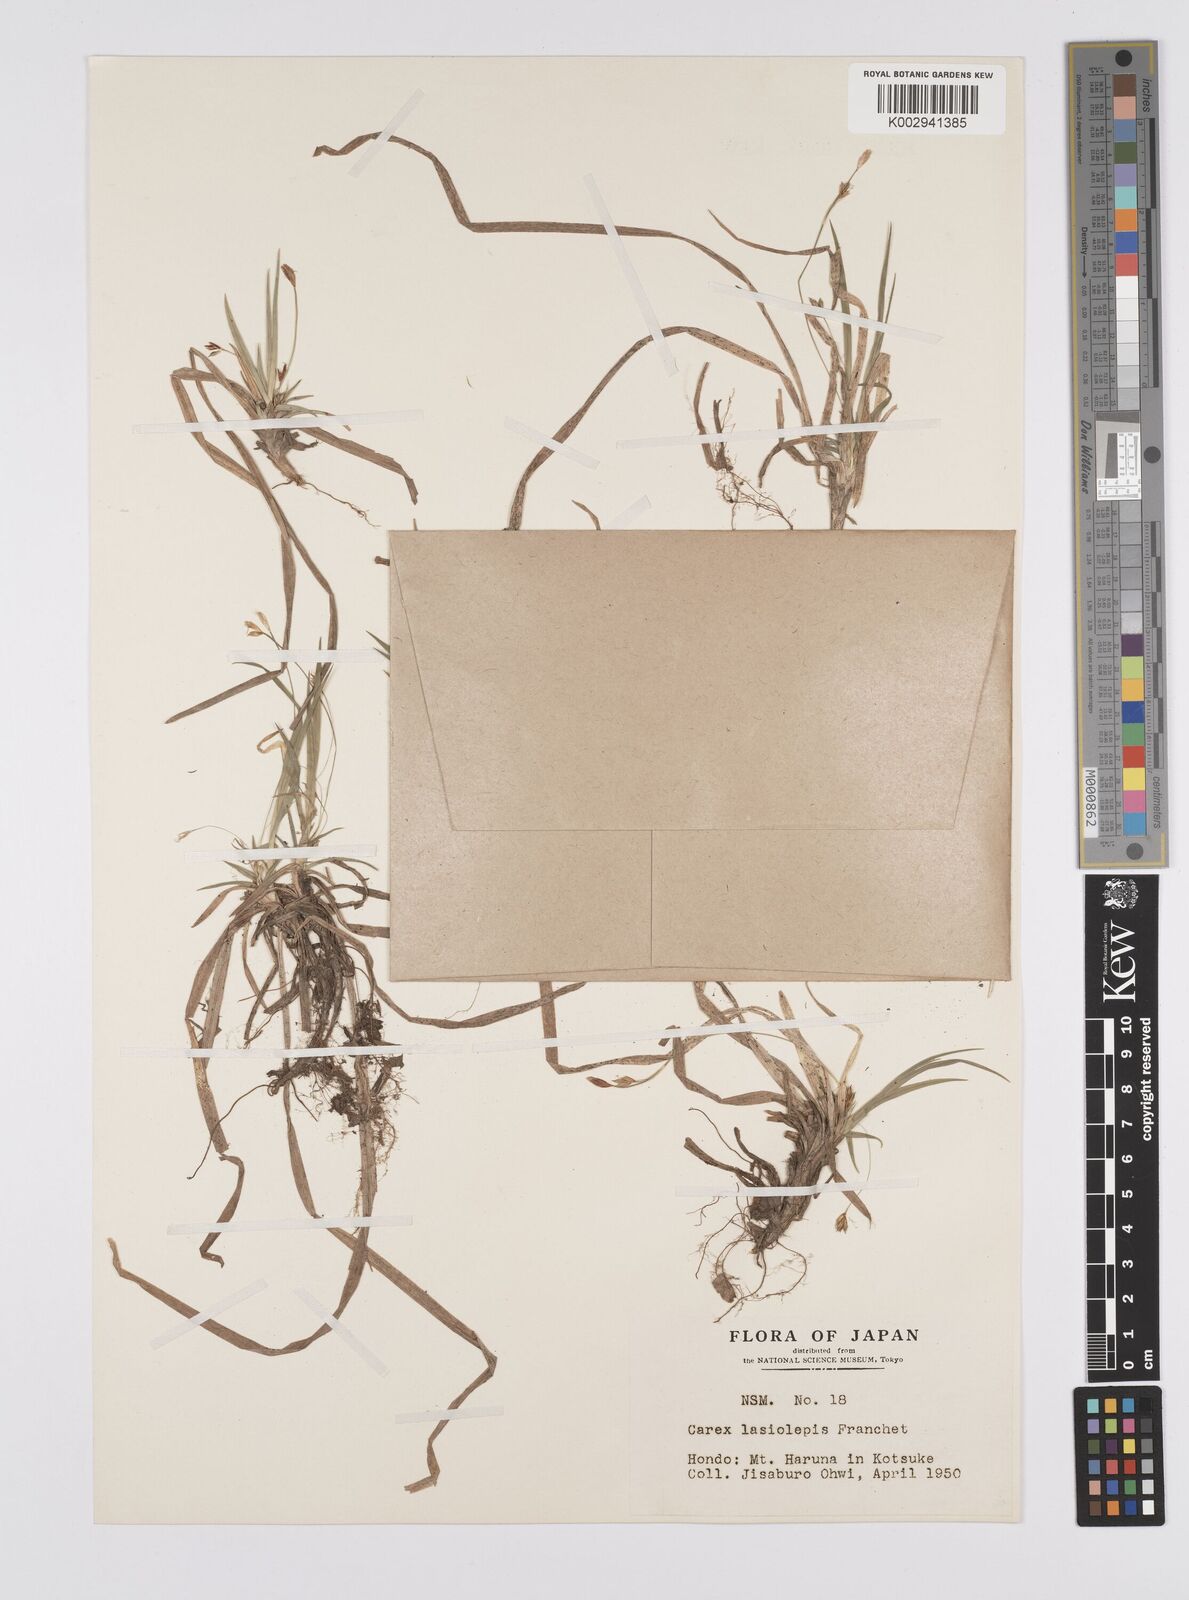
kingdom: Plantae
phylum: Tracheophyta
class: Liliopsida
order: Poales
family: Cyperaceae
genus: Carex
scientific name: Carex lasiolepis
